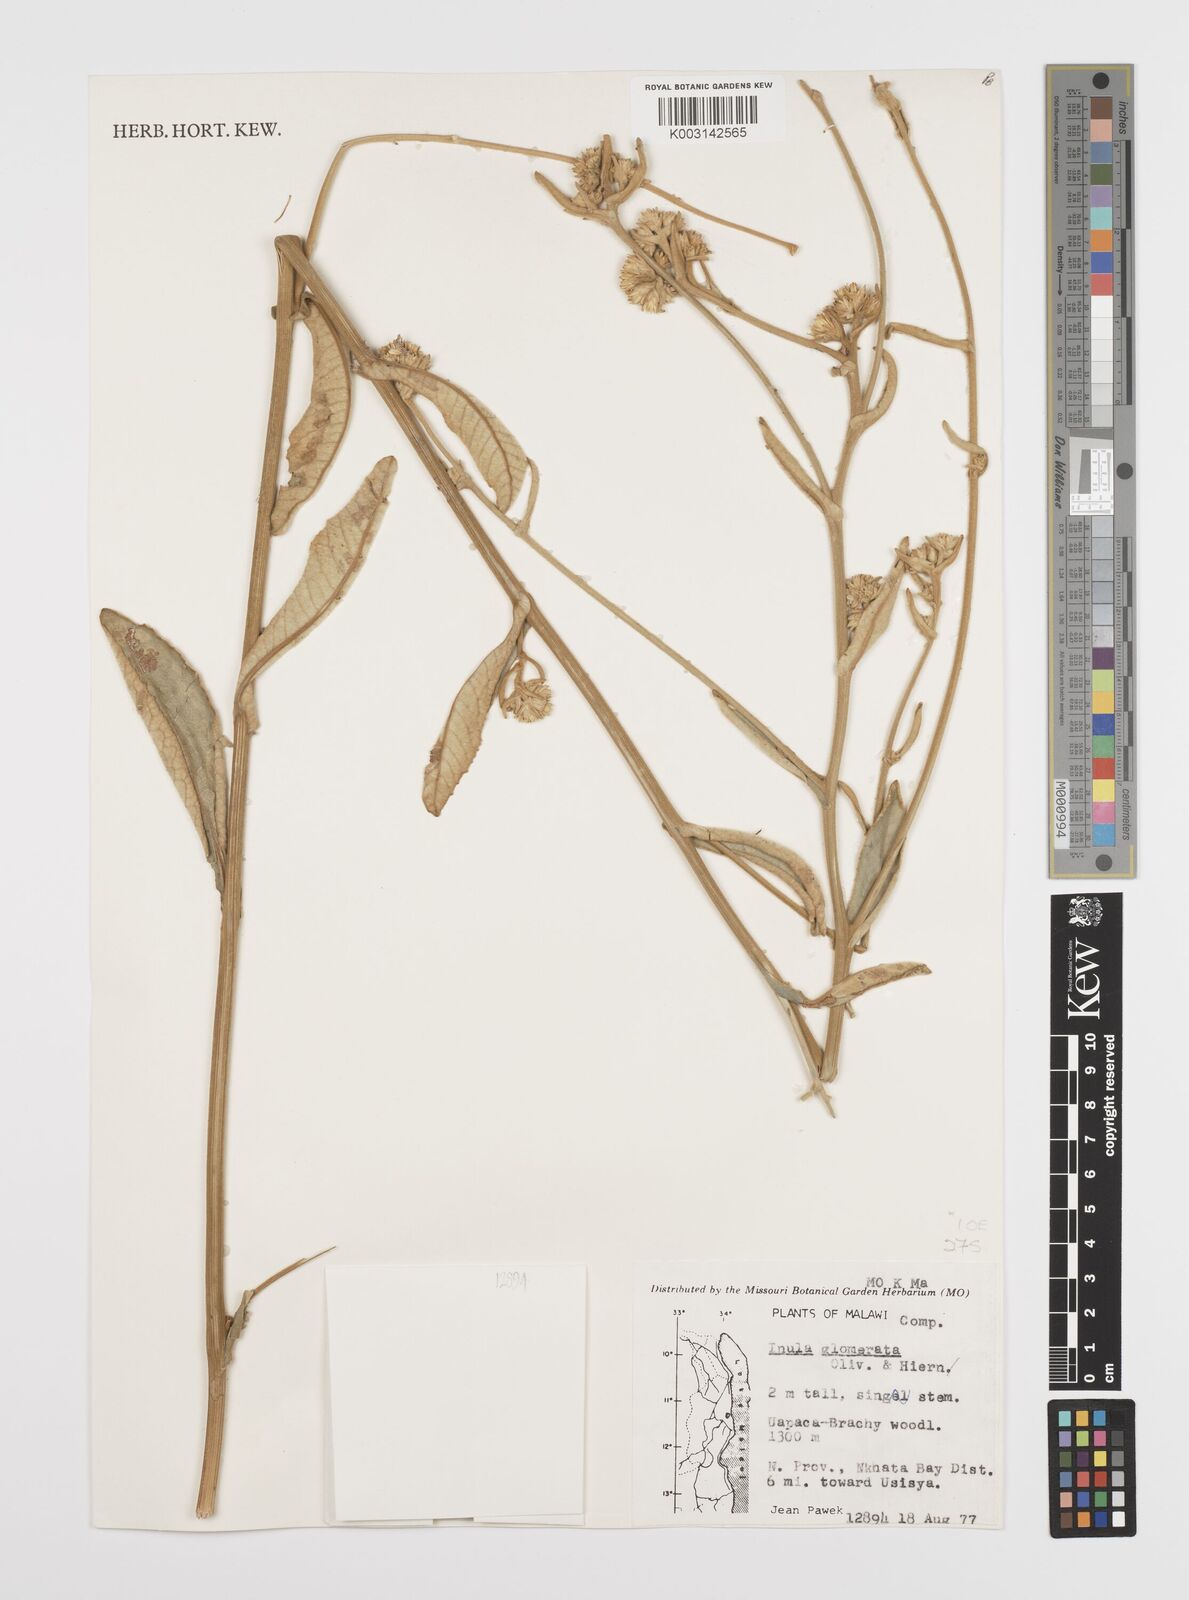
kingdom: Plantae
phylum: Tracheophyta
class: Magnoliopsida
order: Asterales
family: Asteraceae
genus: Inula
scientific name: Inula glomerata
